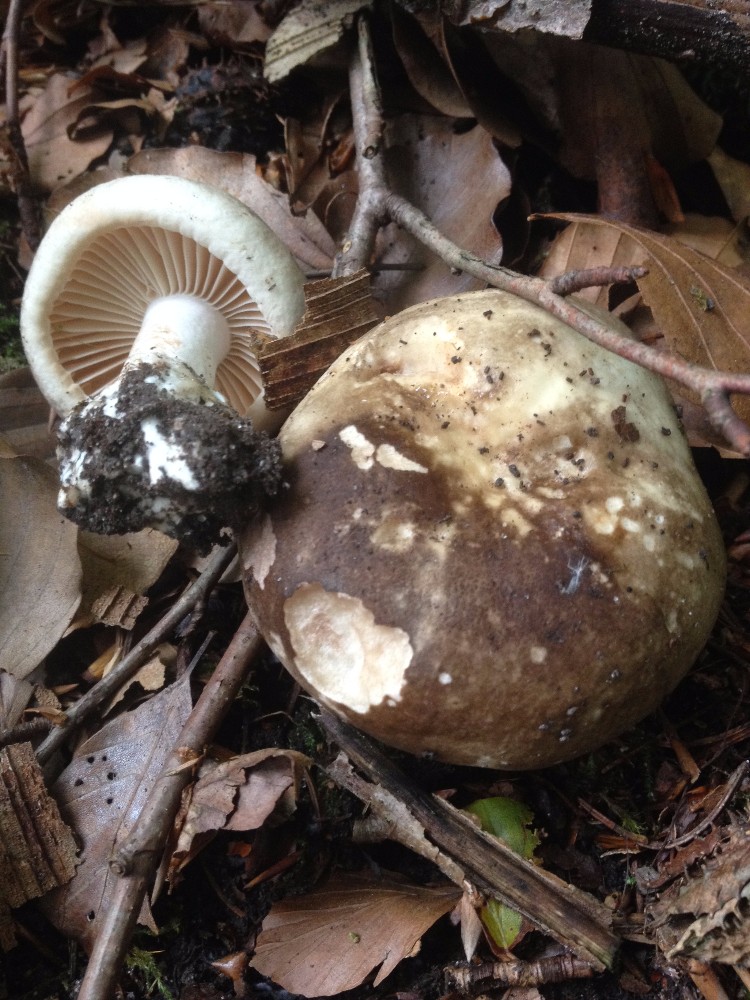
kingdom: Fungi
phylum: Basidiomycota
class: Agaricomycetes
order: Russulales
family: Russulaceae
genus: Russula
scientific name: Russula adusta
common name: sværtende skørhat
